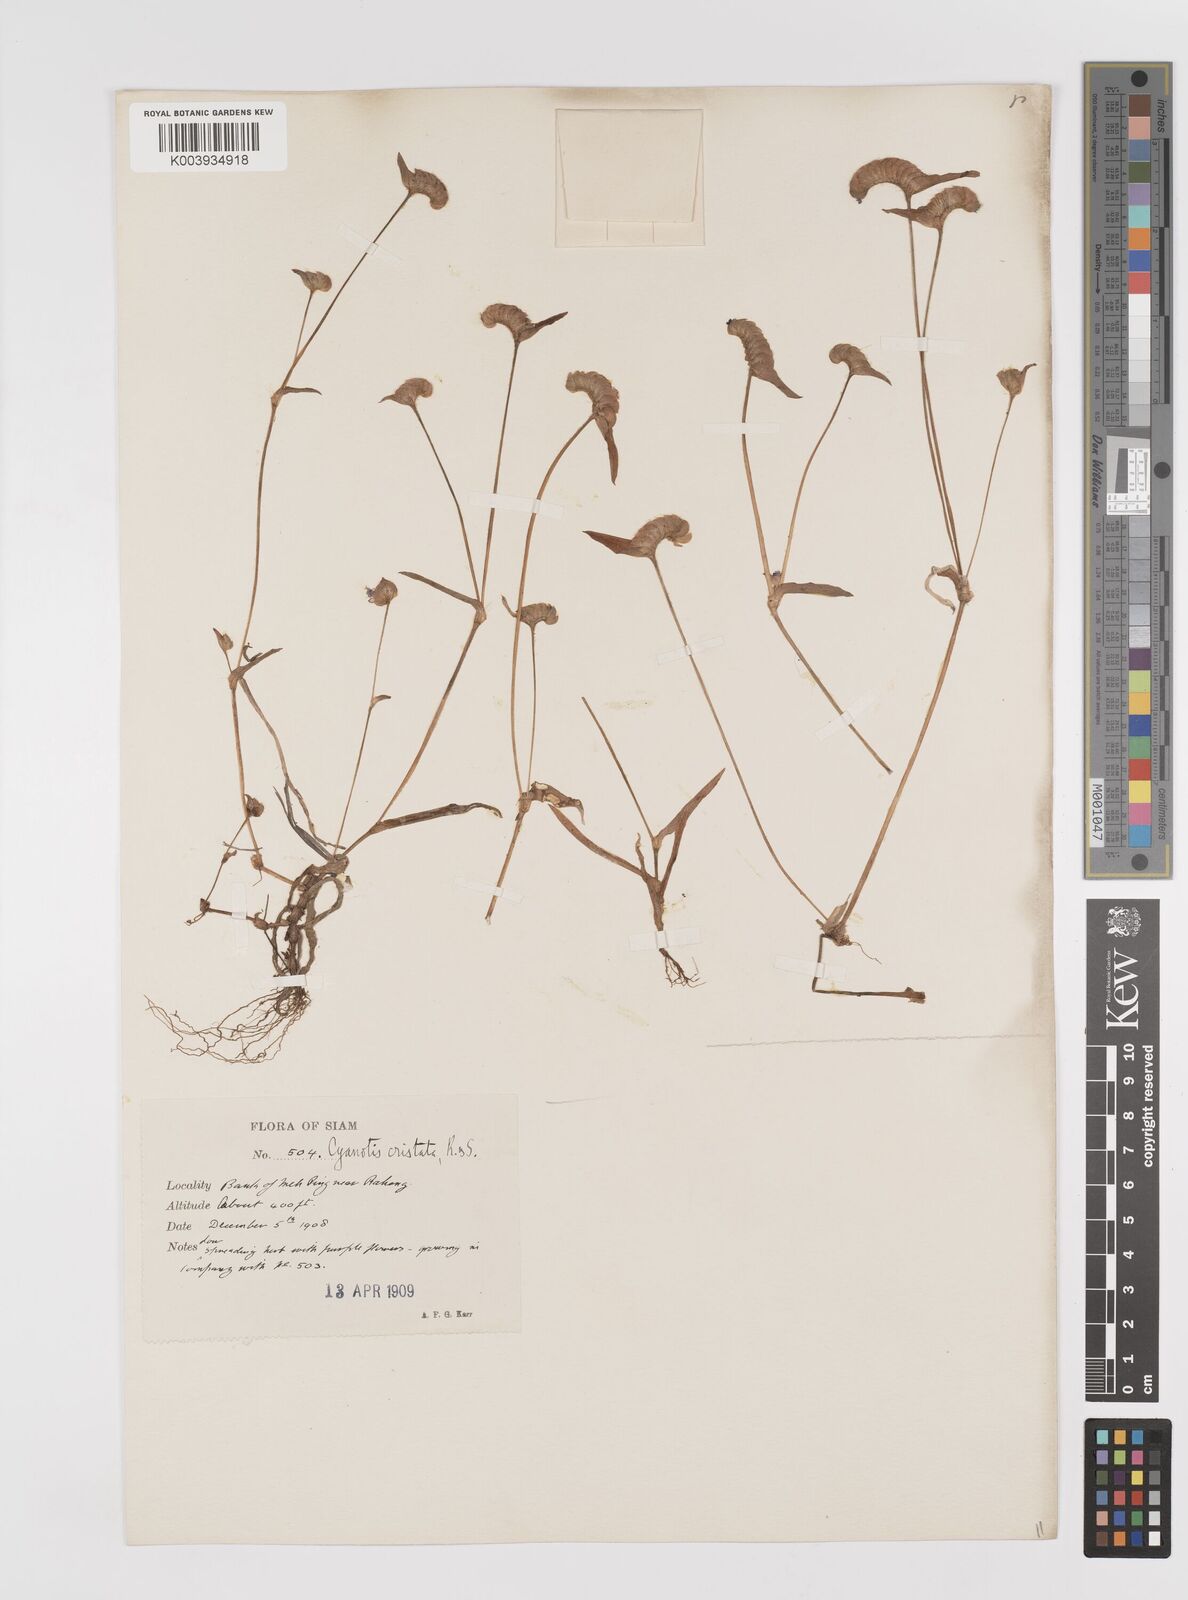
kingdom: Plantae
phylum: Tracheophyta
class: Liliopsida
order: Commelinales
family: Commelinaceae
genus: Cyanotis
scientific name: Cyanotis cristata
